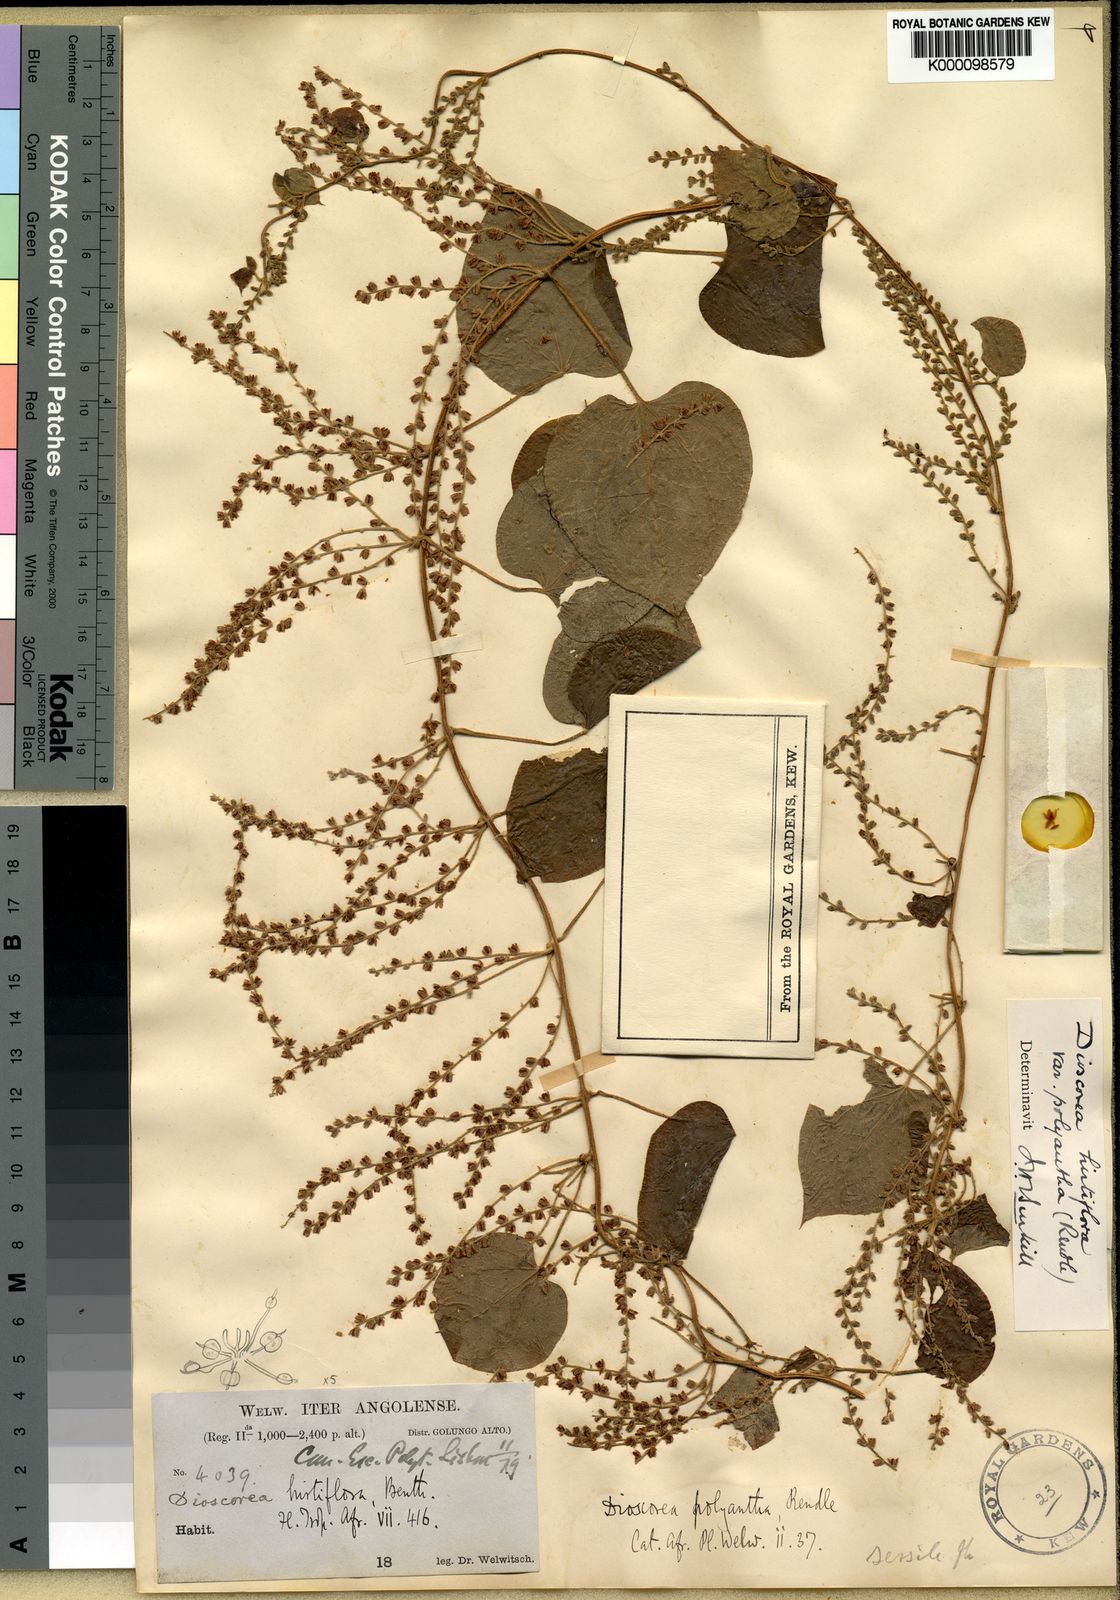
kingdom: Plantae
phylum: Tracheophyta
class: Liliopsida
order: Dioscoreales
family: Dioscoreaceae
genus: Dioscorea
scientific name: Dioscorea hirtiflora
